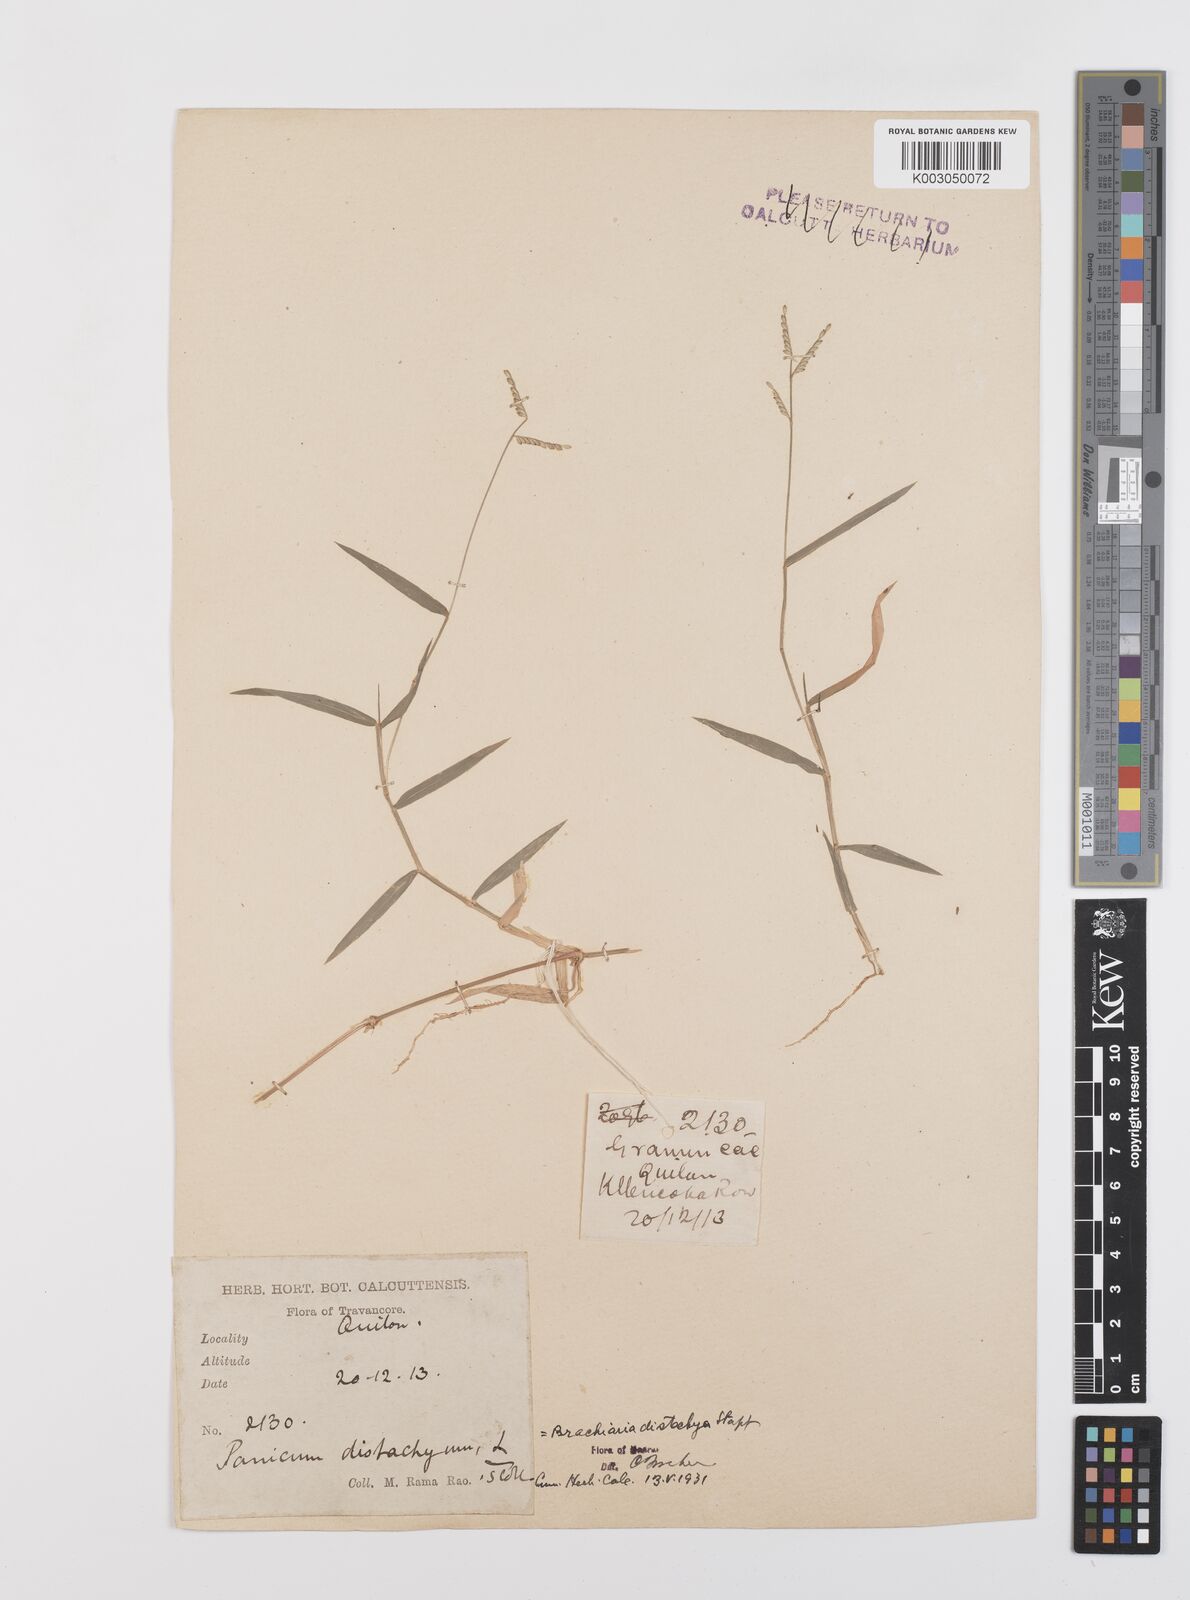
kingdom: Plantae
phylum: Tracheophyta
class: Liliopsida
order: Poales
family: Poaceae
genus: Urochloa
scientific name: Urochloa distachyos
